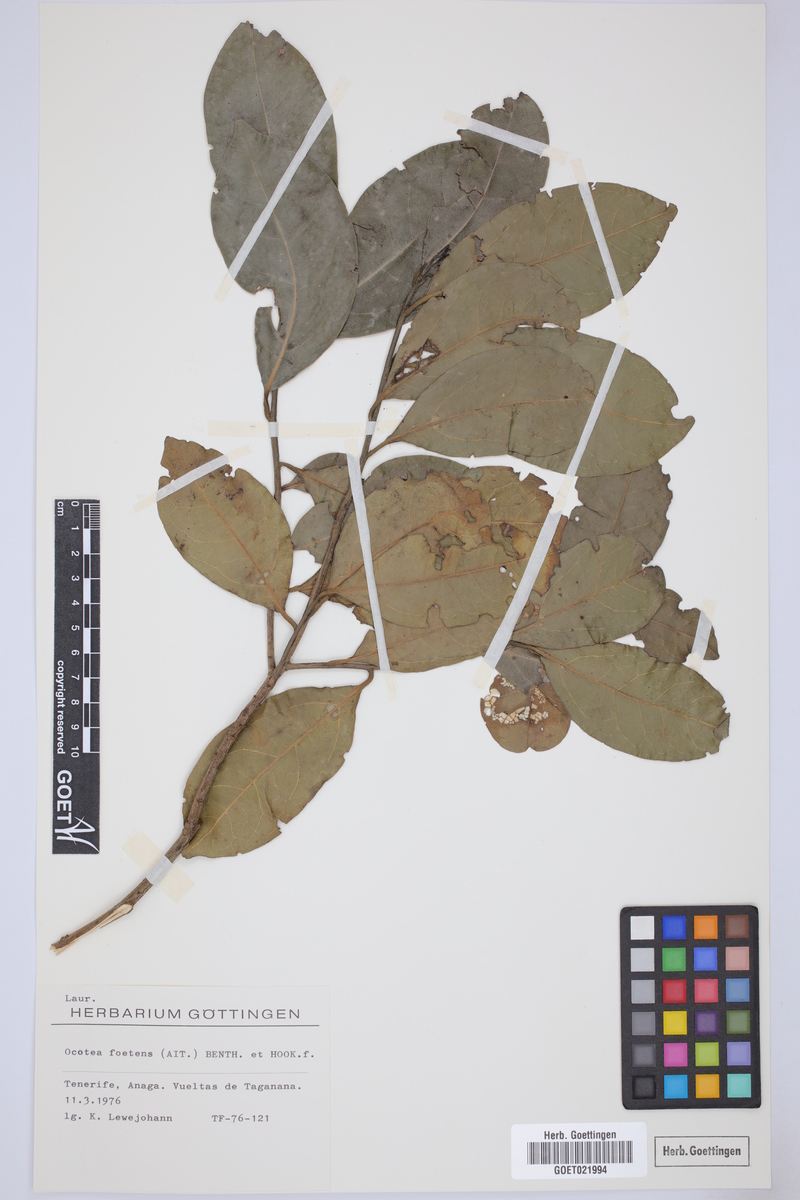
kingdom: Plantae
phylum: Tracheophyta
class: Magnoliopsida
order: Laurales
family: Lauraceae
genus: Mespilodaphne
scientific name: Mespilodaphne foetens
